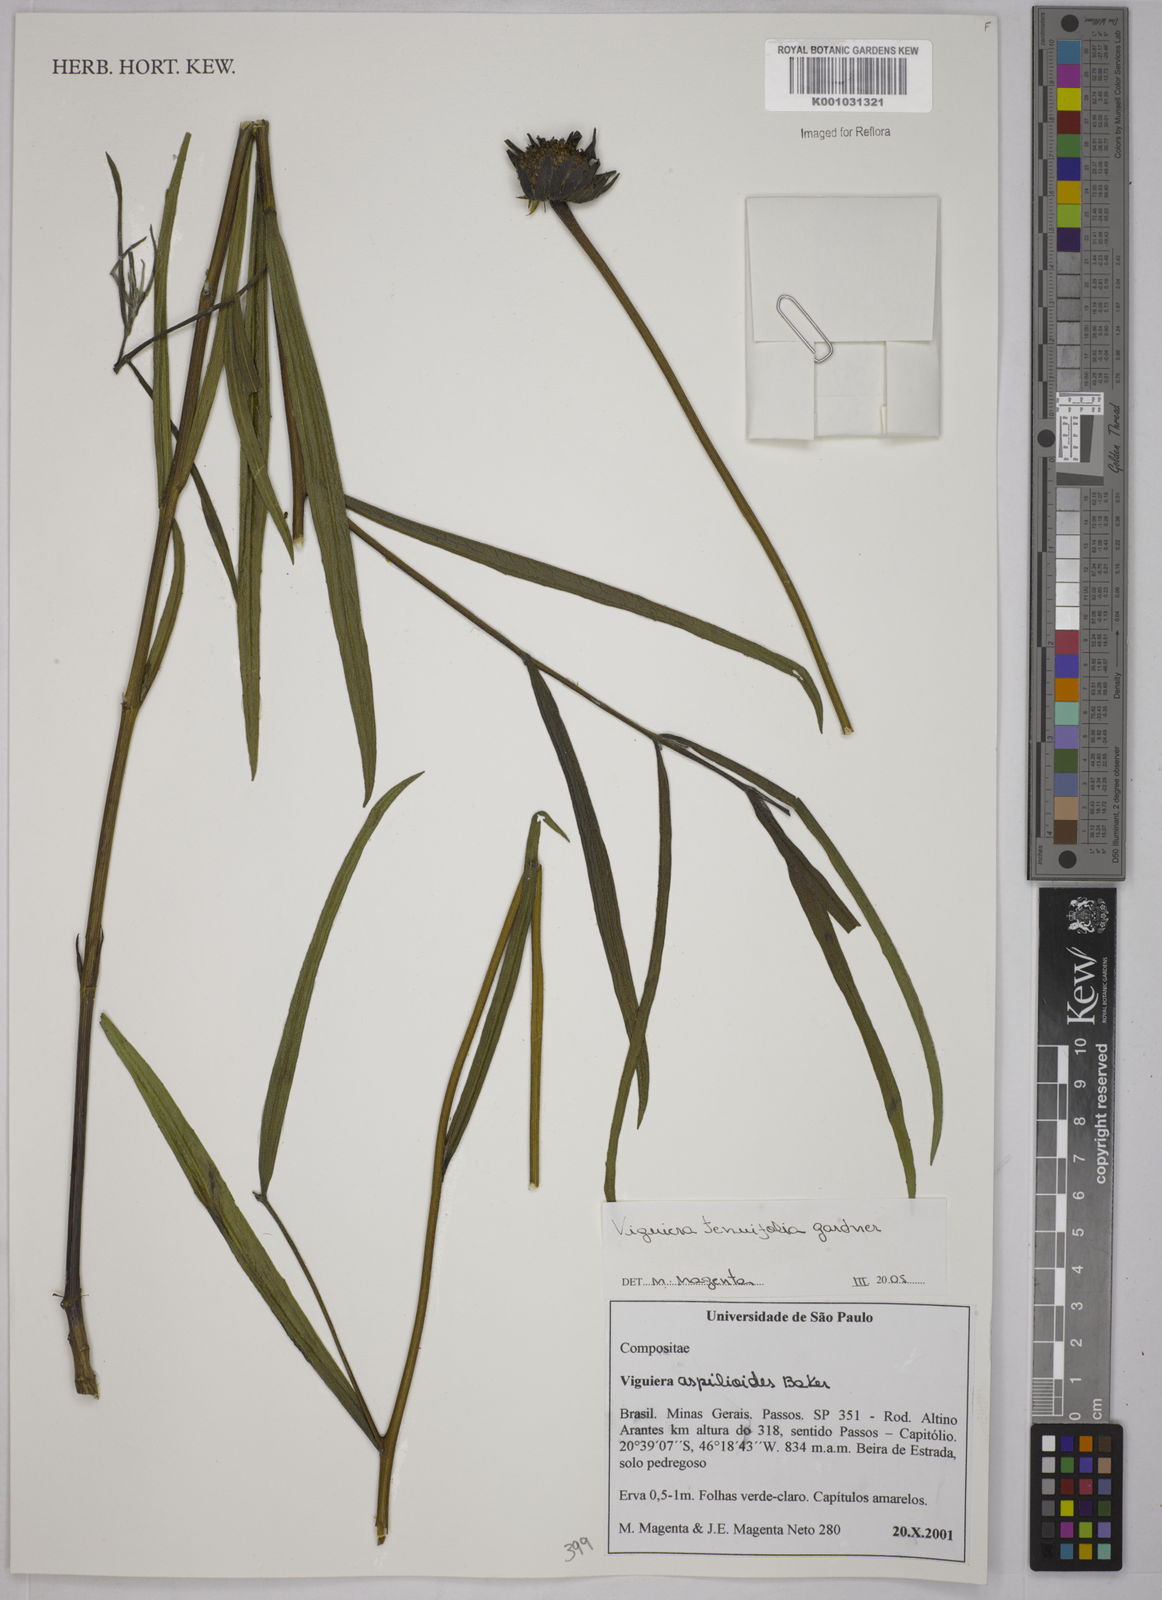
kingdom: Plantae
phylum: Tracheophyta
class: Magnoliopsida
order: Asterales
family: Asteraceae
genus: Aldama
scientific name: Aldama tenuifolia
